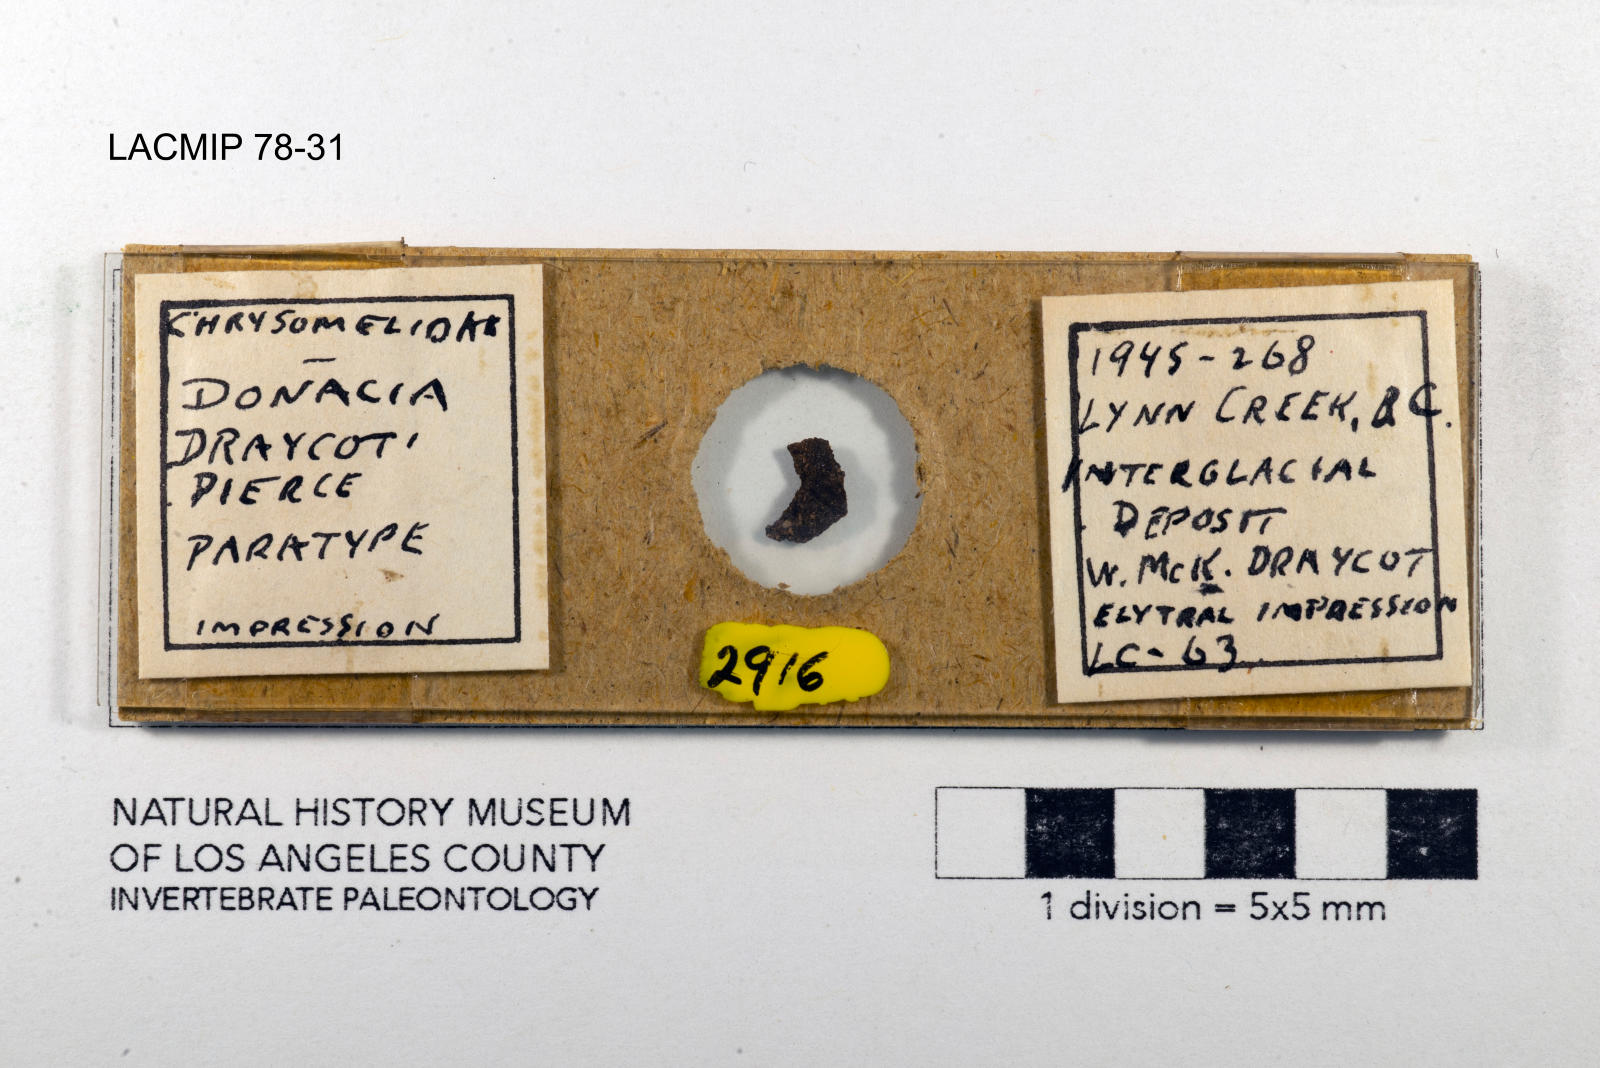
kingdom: Animalia
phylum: Arthropoda
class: Insecta
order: Coleoptera
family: Chrysomelidae
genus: Donacia
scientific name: Donacia draycoti
